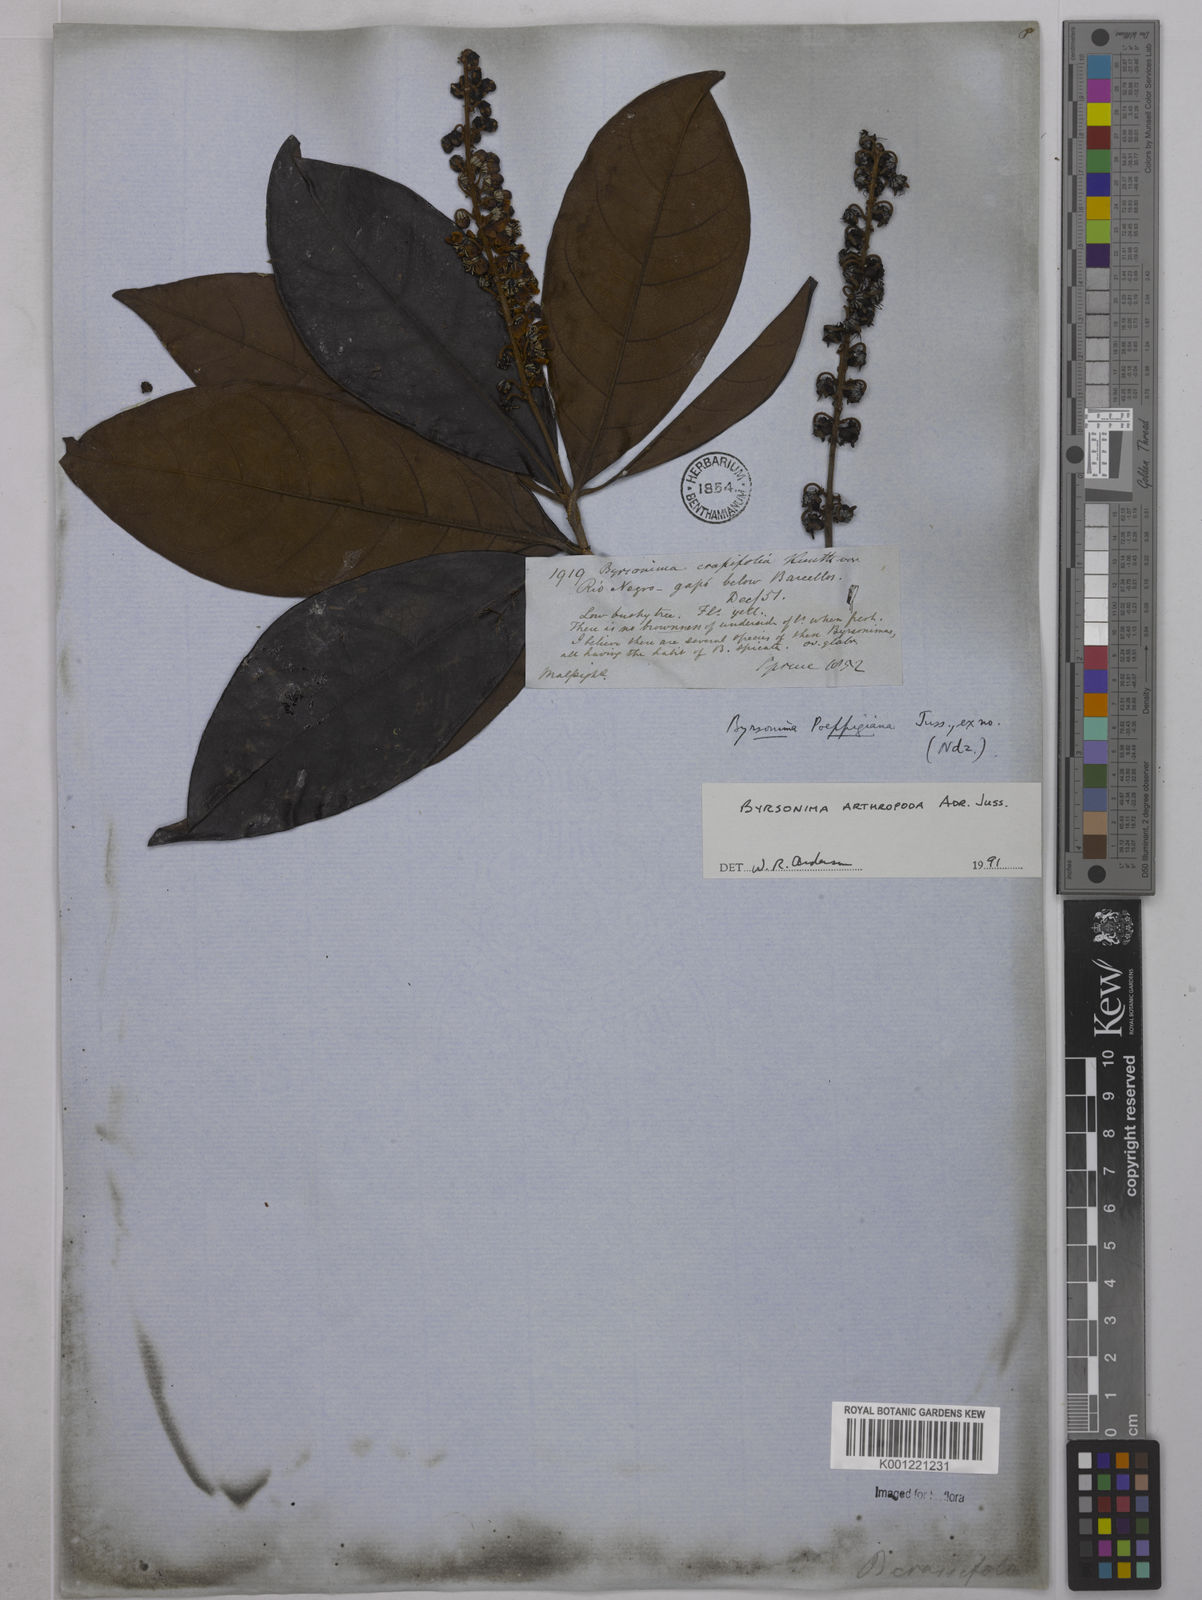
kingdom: Plantae
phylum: Tracheophyta
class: Magnoliopsida
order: Malpighiales
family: Malpighiaceae
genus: Byrsonima
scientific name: Byrsonima arthropoda
